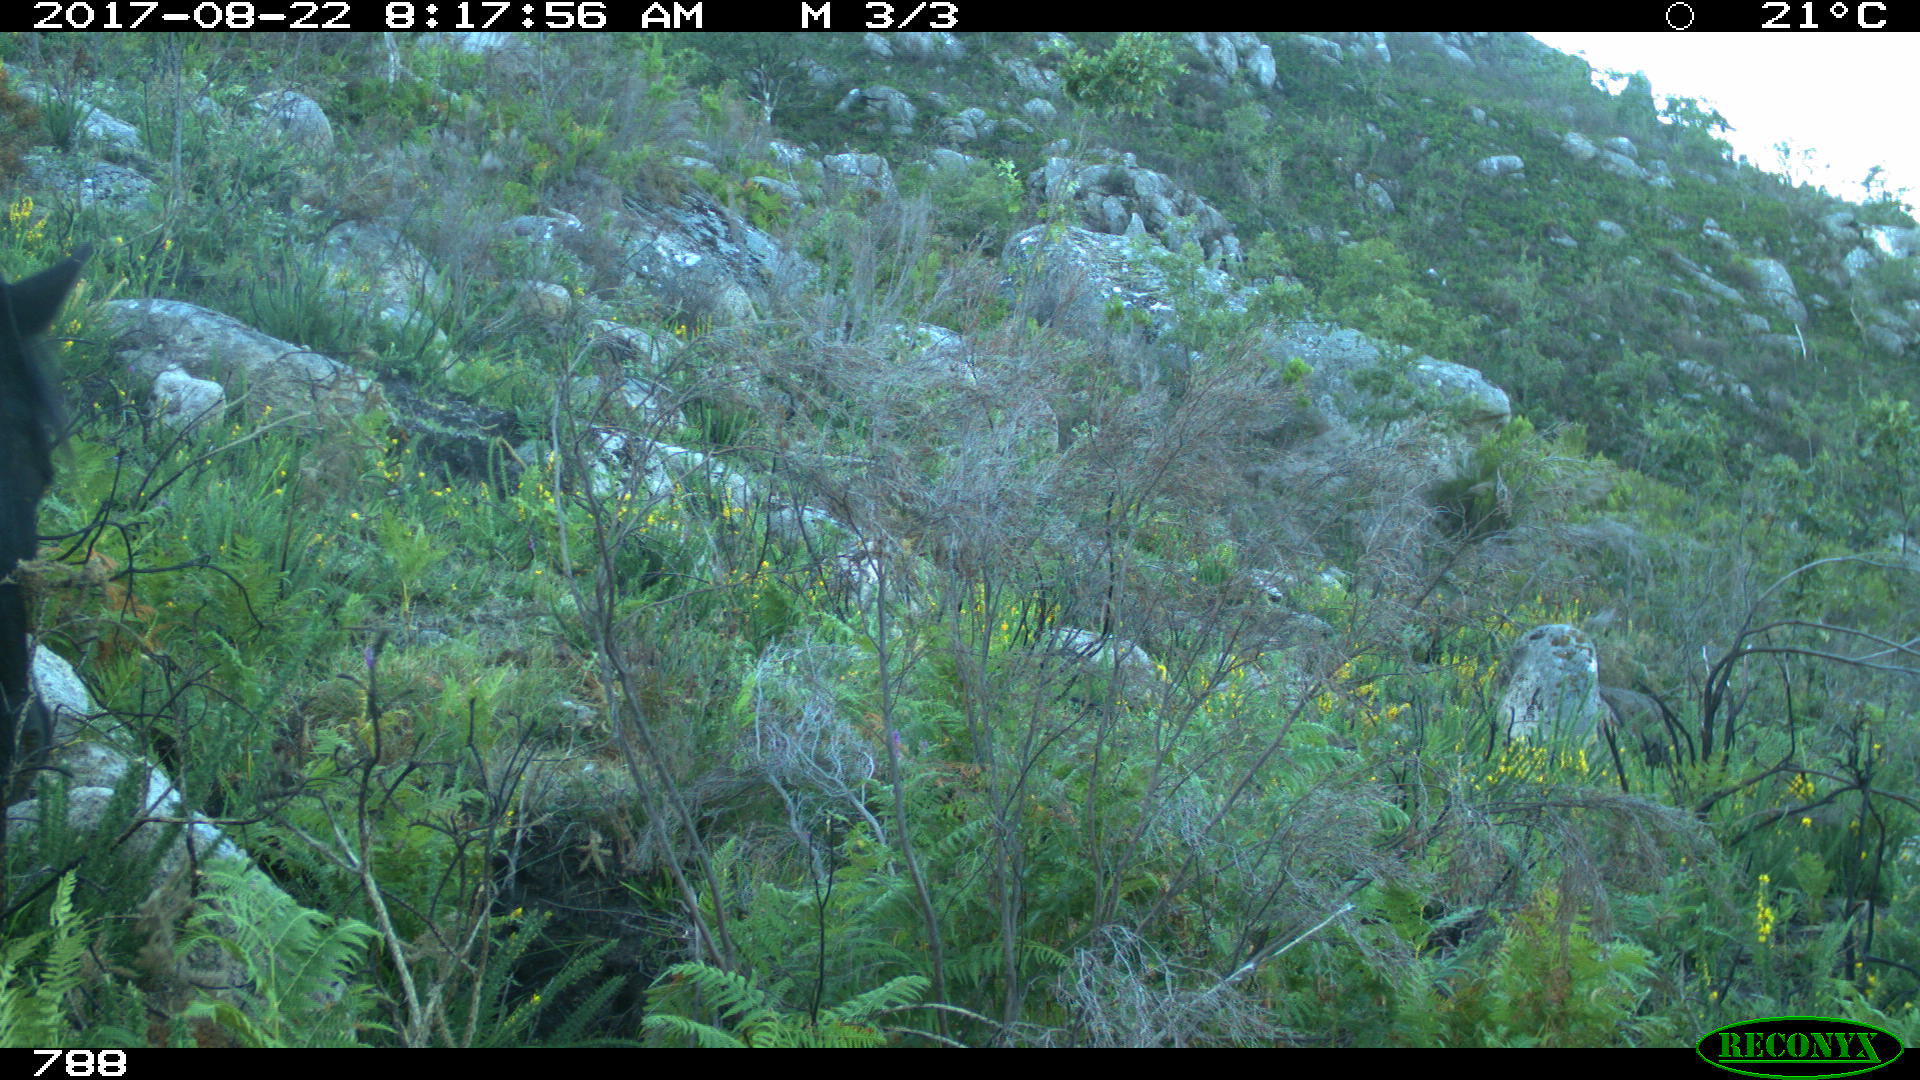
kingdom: Animalia
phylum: Chordata
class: Mammalia
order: Perissodactyla
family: Equidae
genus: Equus
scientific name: Equus caballus
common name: Horse
